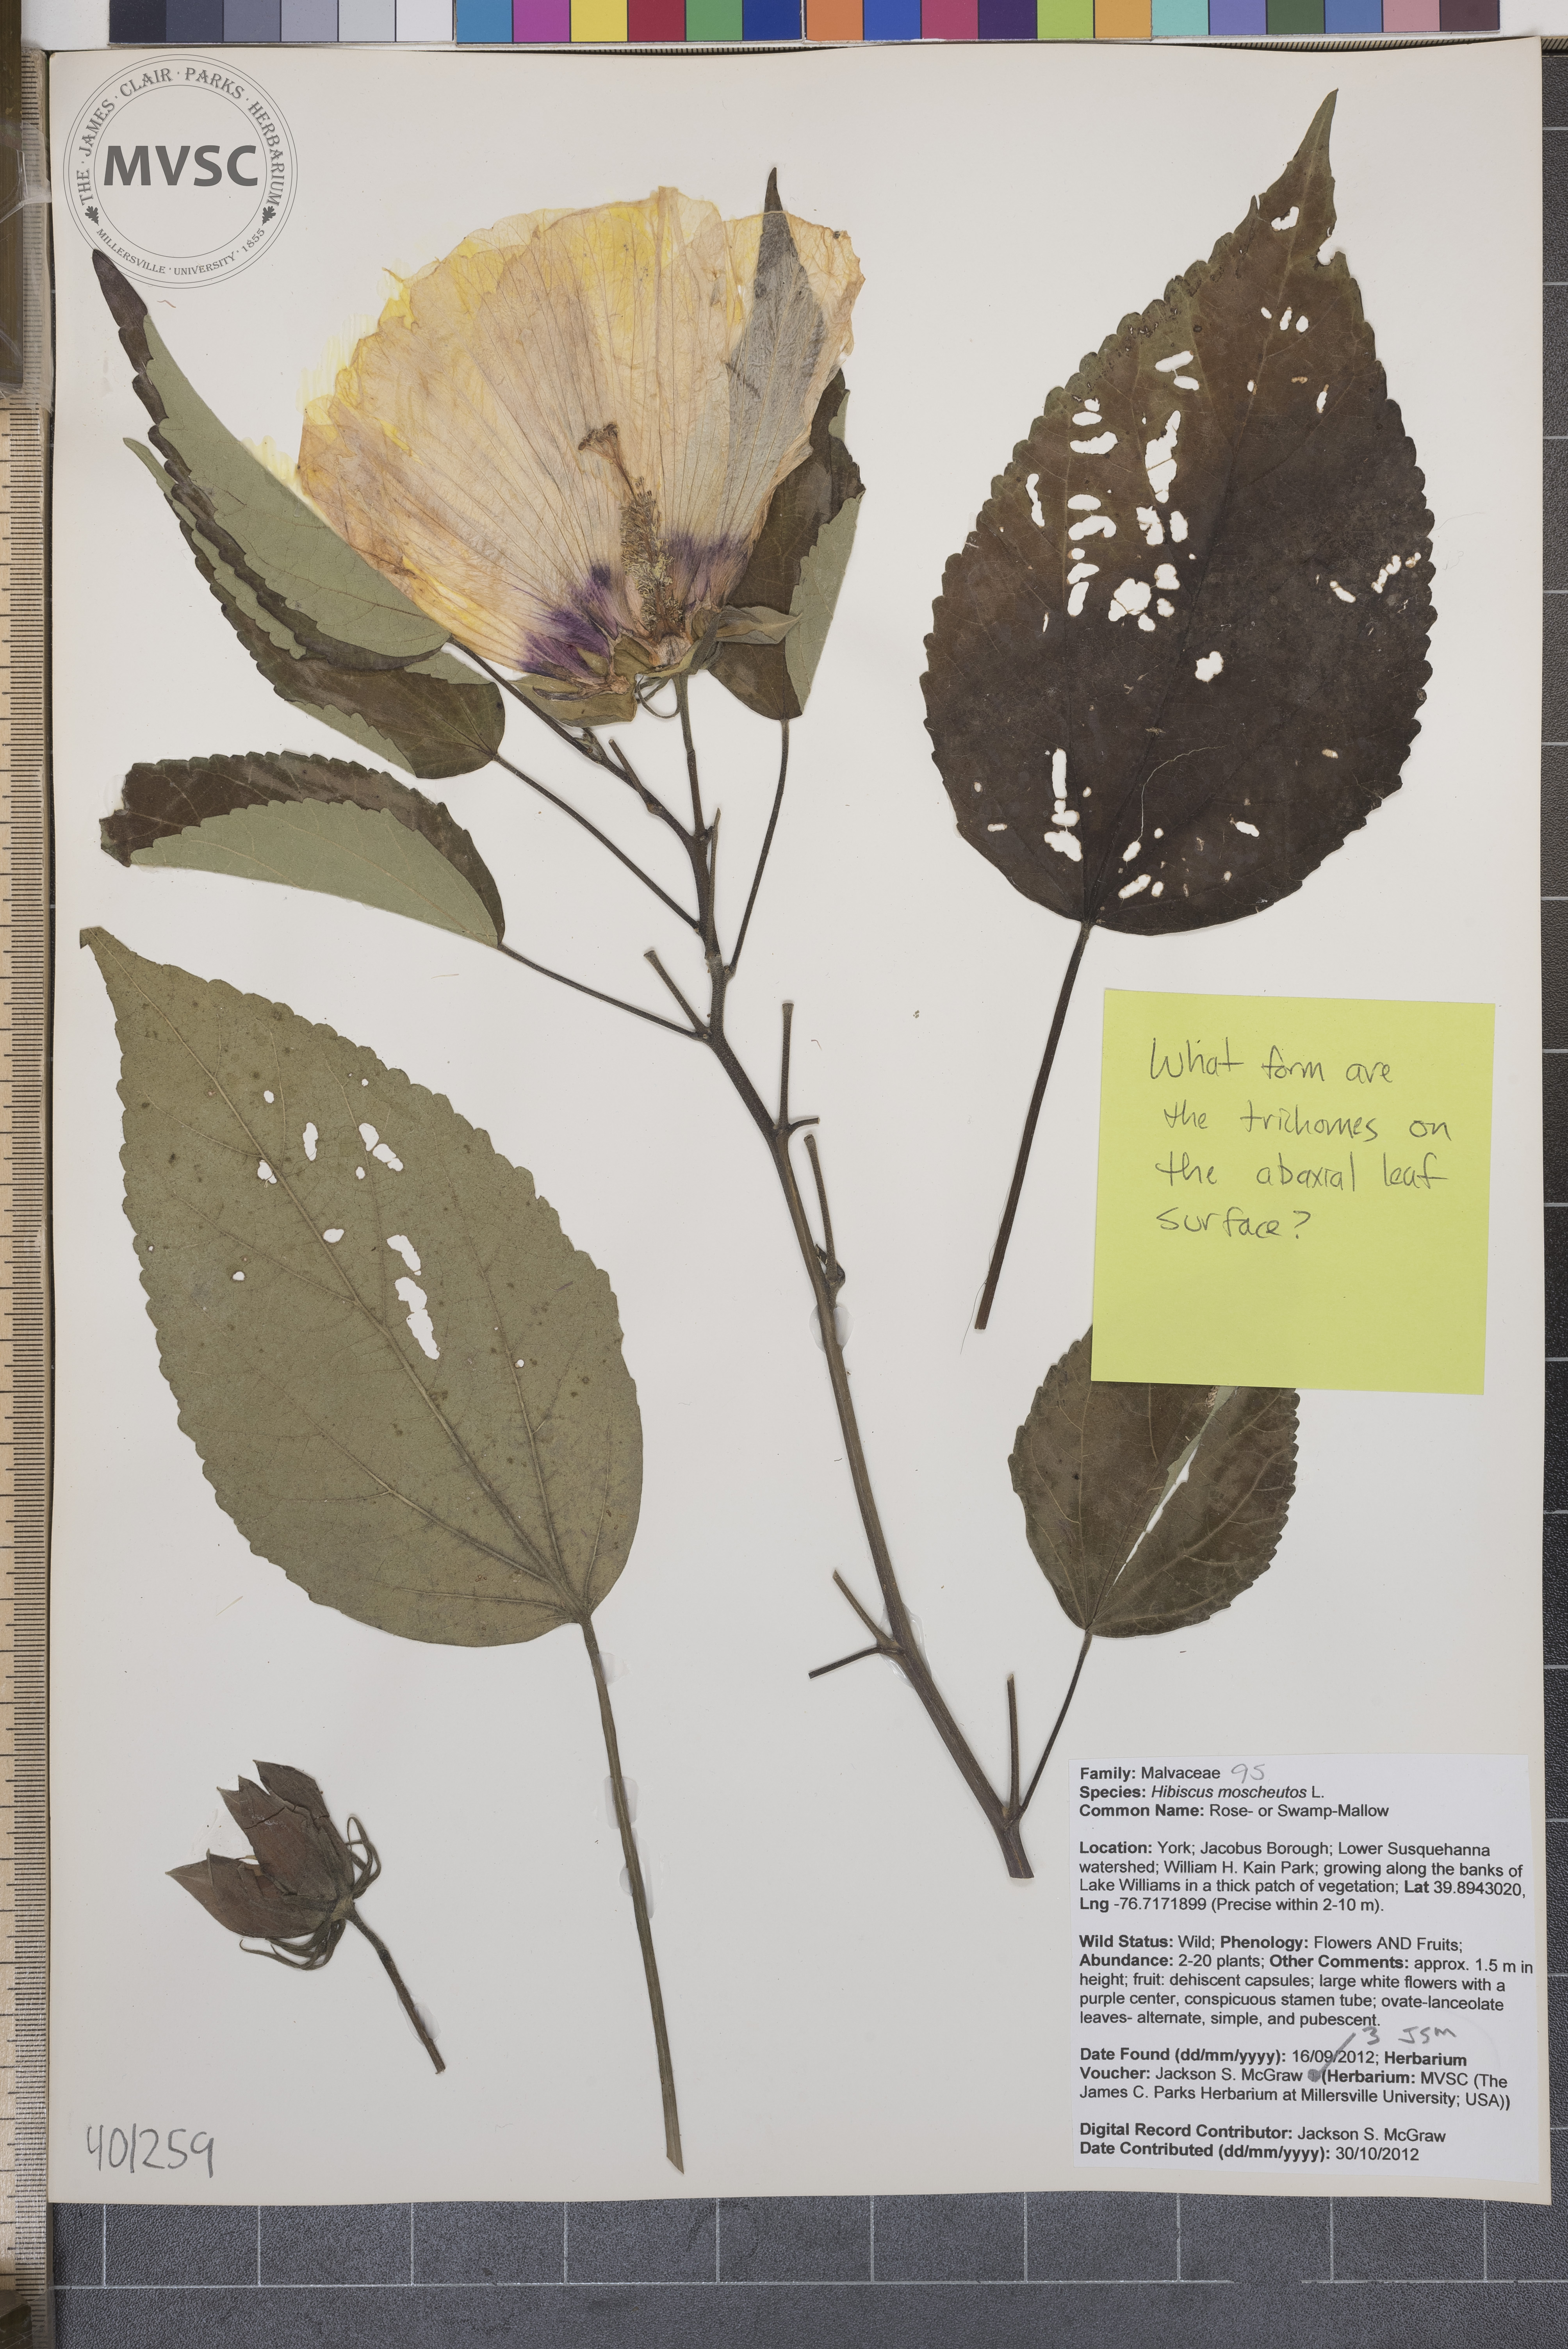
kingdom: Plantae
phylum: Tracheophyta
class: Magnoliopsida
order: Malvales
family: Malvaceae
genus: Hibiscus
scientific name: Hibiscus moscheutos
